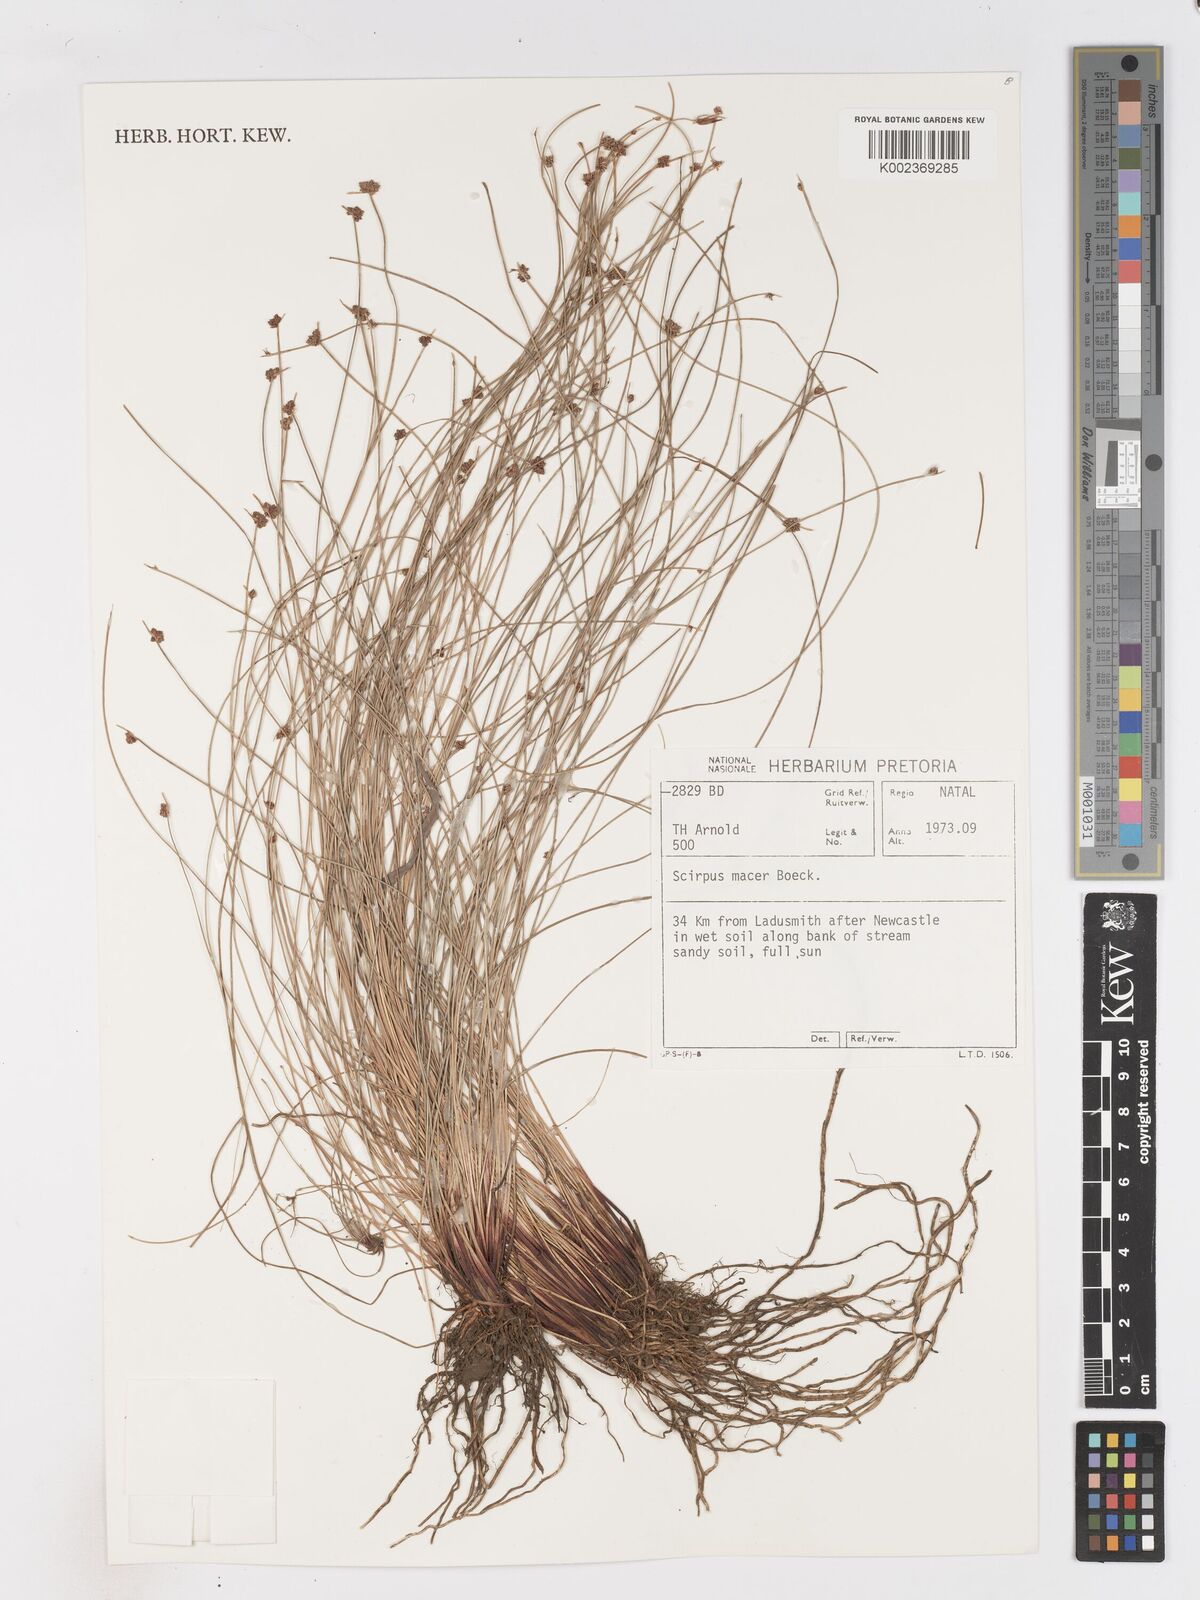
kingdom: Plantae
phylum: Tracheophyta
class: Liliopsida
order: Poales
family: Cyperaceae
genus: Isolepis
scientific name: Isolepis costata
